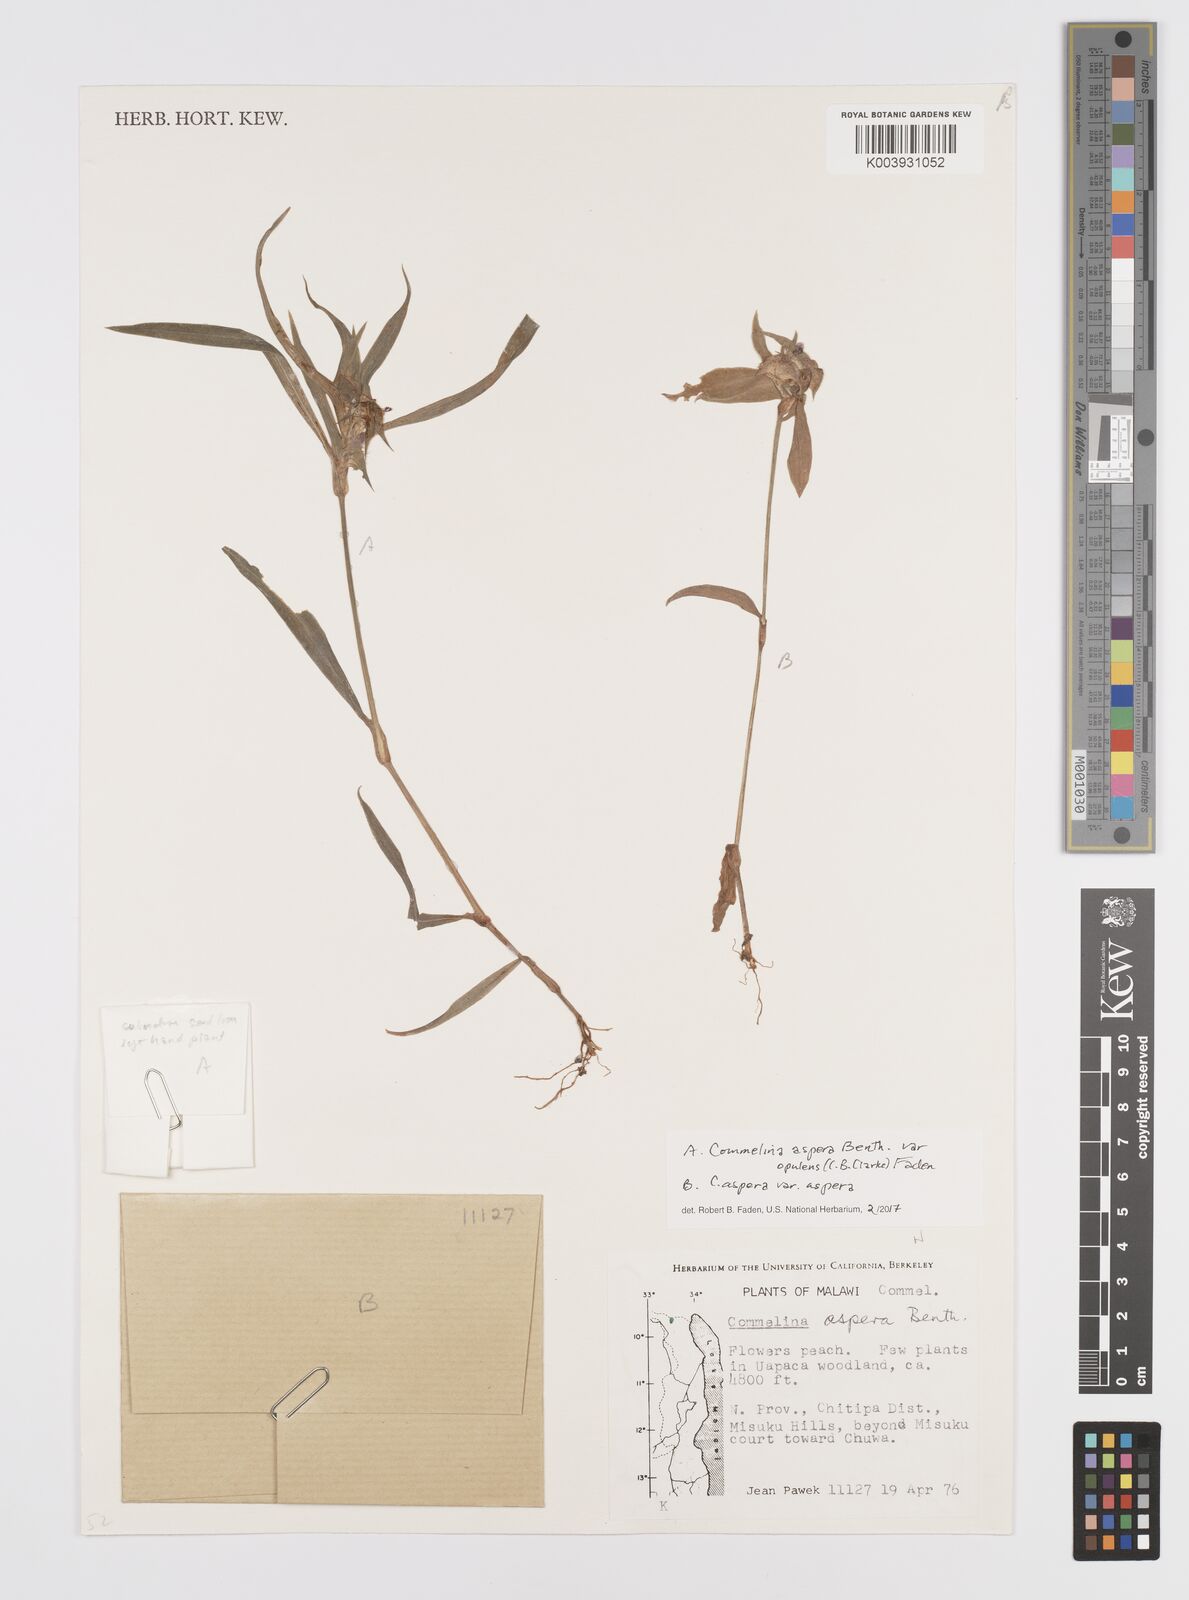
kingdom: Plantae
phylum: Tracheophyta
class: Liliopsida
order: Commelinales
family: Commelinaceae
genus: Commelina
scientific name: Commelina aspera
